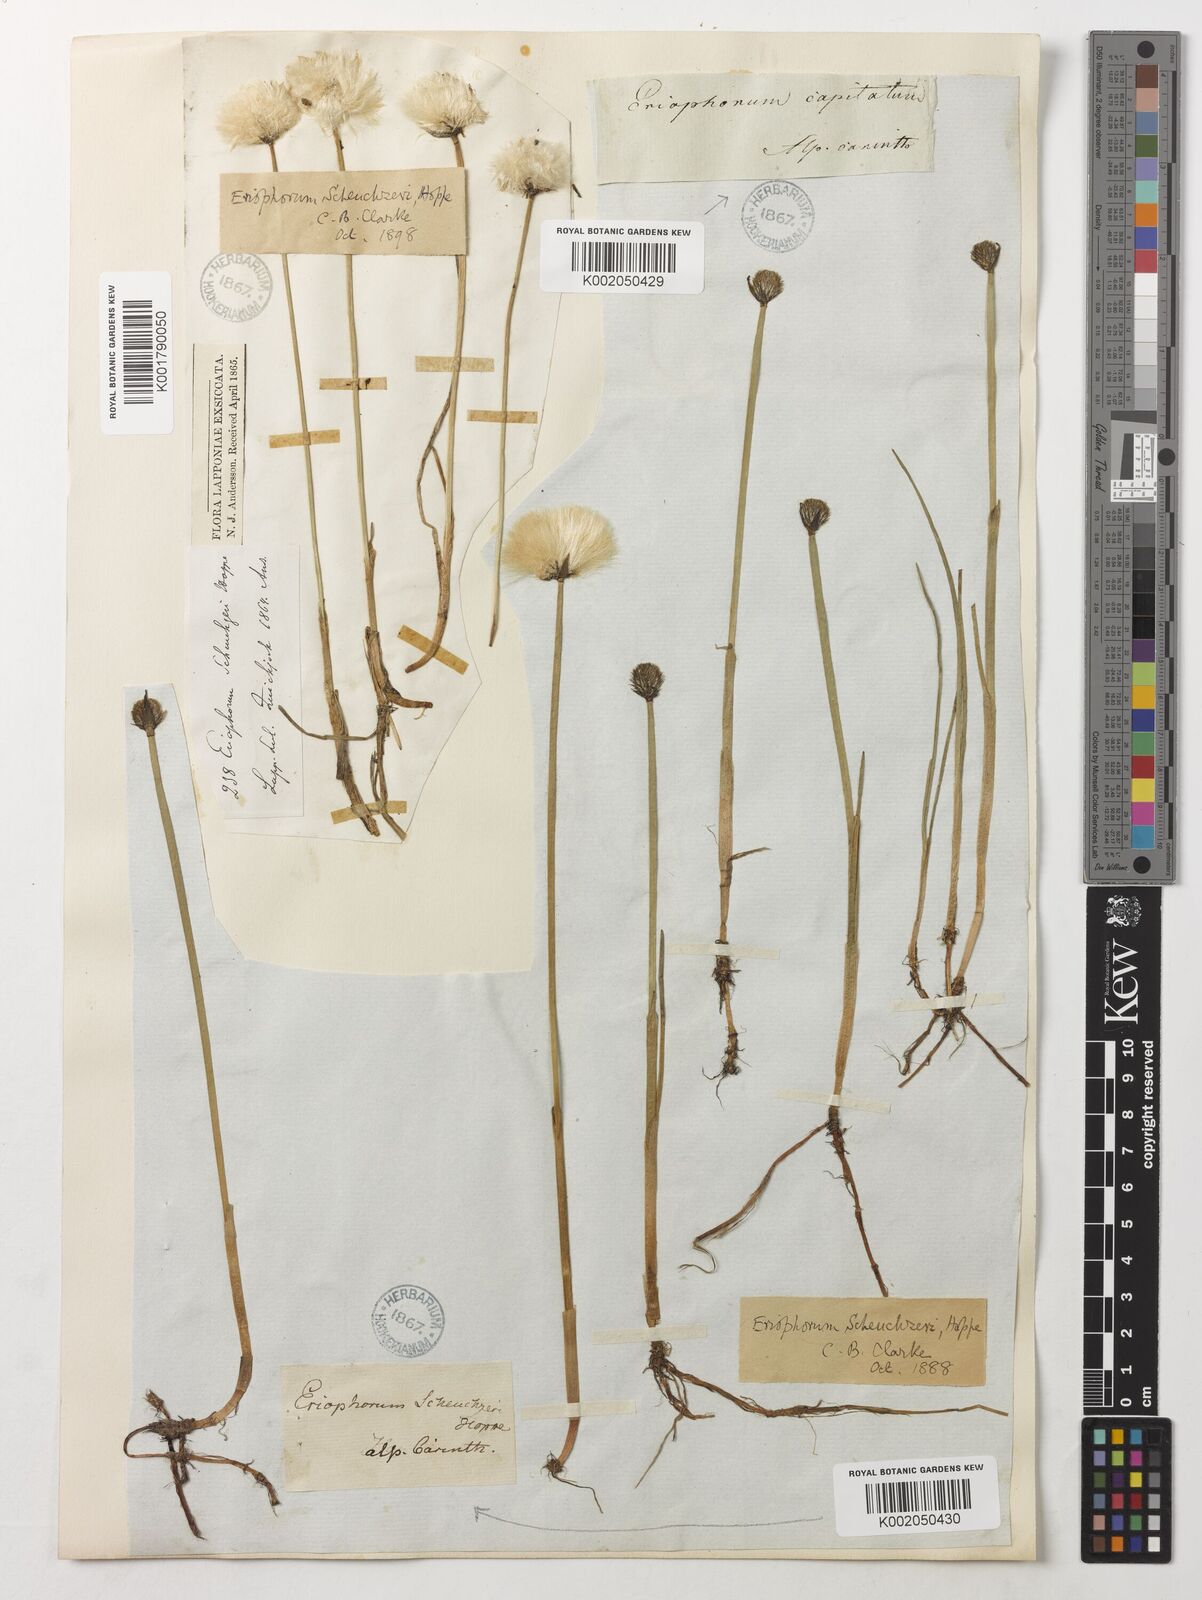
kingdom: Plantae
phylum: Tracheophyta
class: Liliopsida
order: Poales
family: Cyperaceae
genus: Eriophorum
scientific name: Eriophorum scheuchzeri
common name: Scheuchzer's cottongrass
